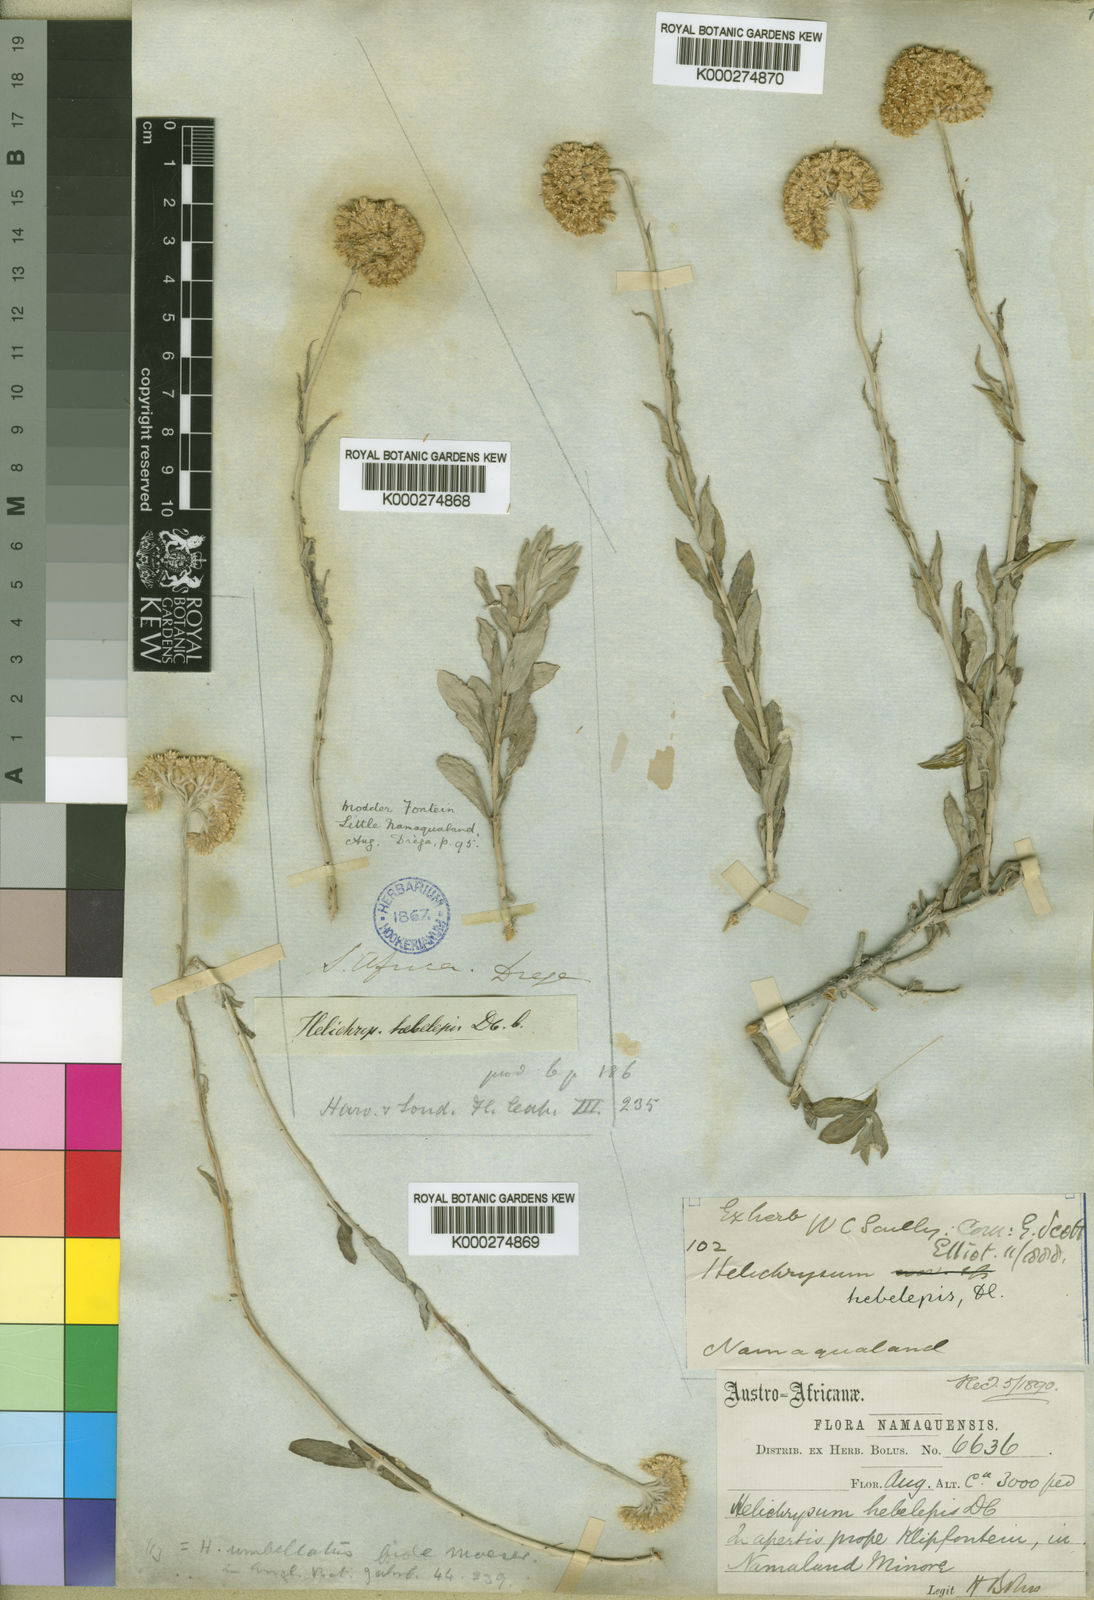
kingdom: Plantae
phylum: Tracheophyta
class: Magnoliopsida
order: Asterales
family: Asteraceae
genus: Helichrysum
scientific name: Helichrysum hebelepis
